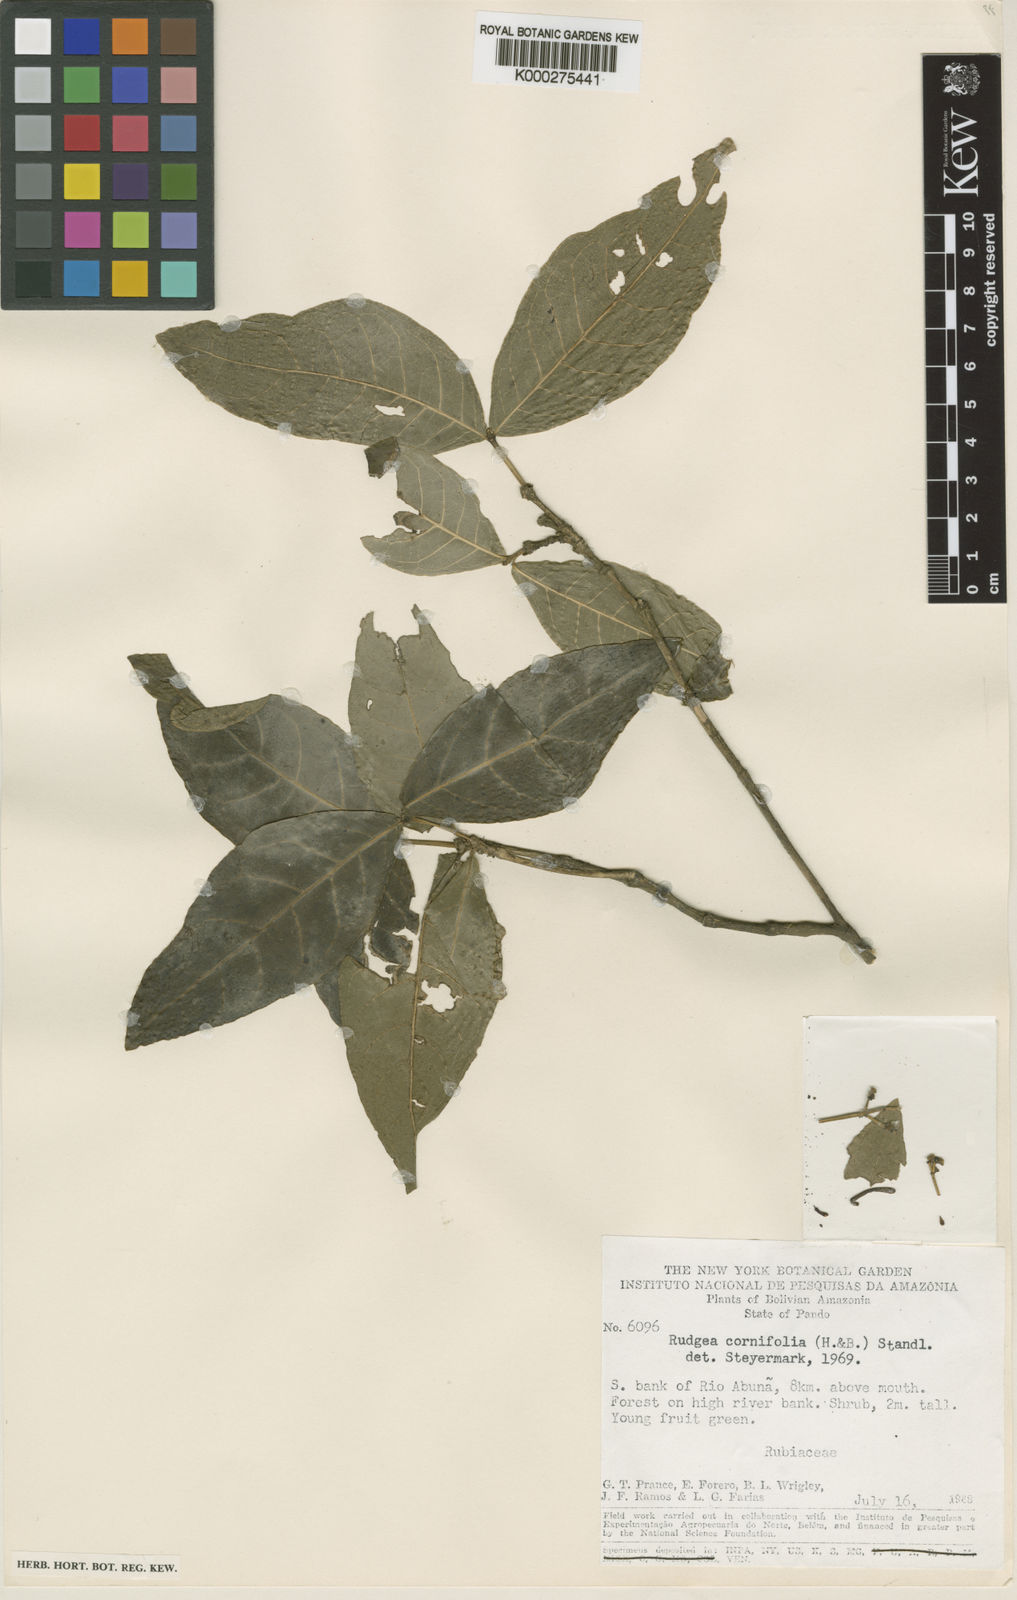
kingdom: Plantae
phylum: Tracheophyta
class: Magnoliopsida
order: Gentianales
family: Rubiaceae
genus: Rudgea
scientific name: Rudgea cornifolia
